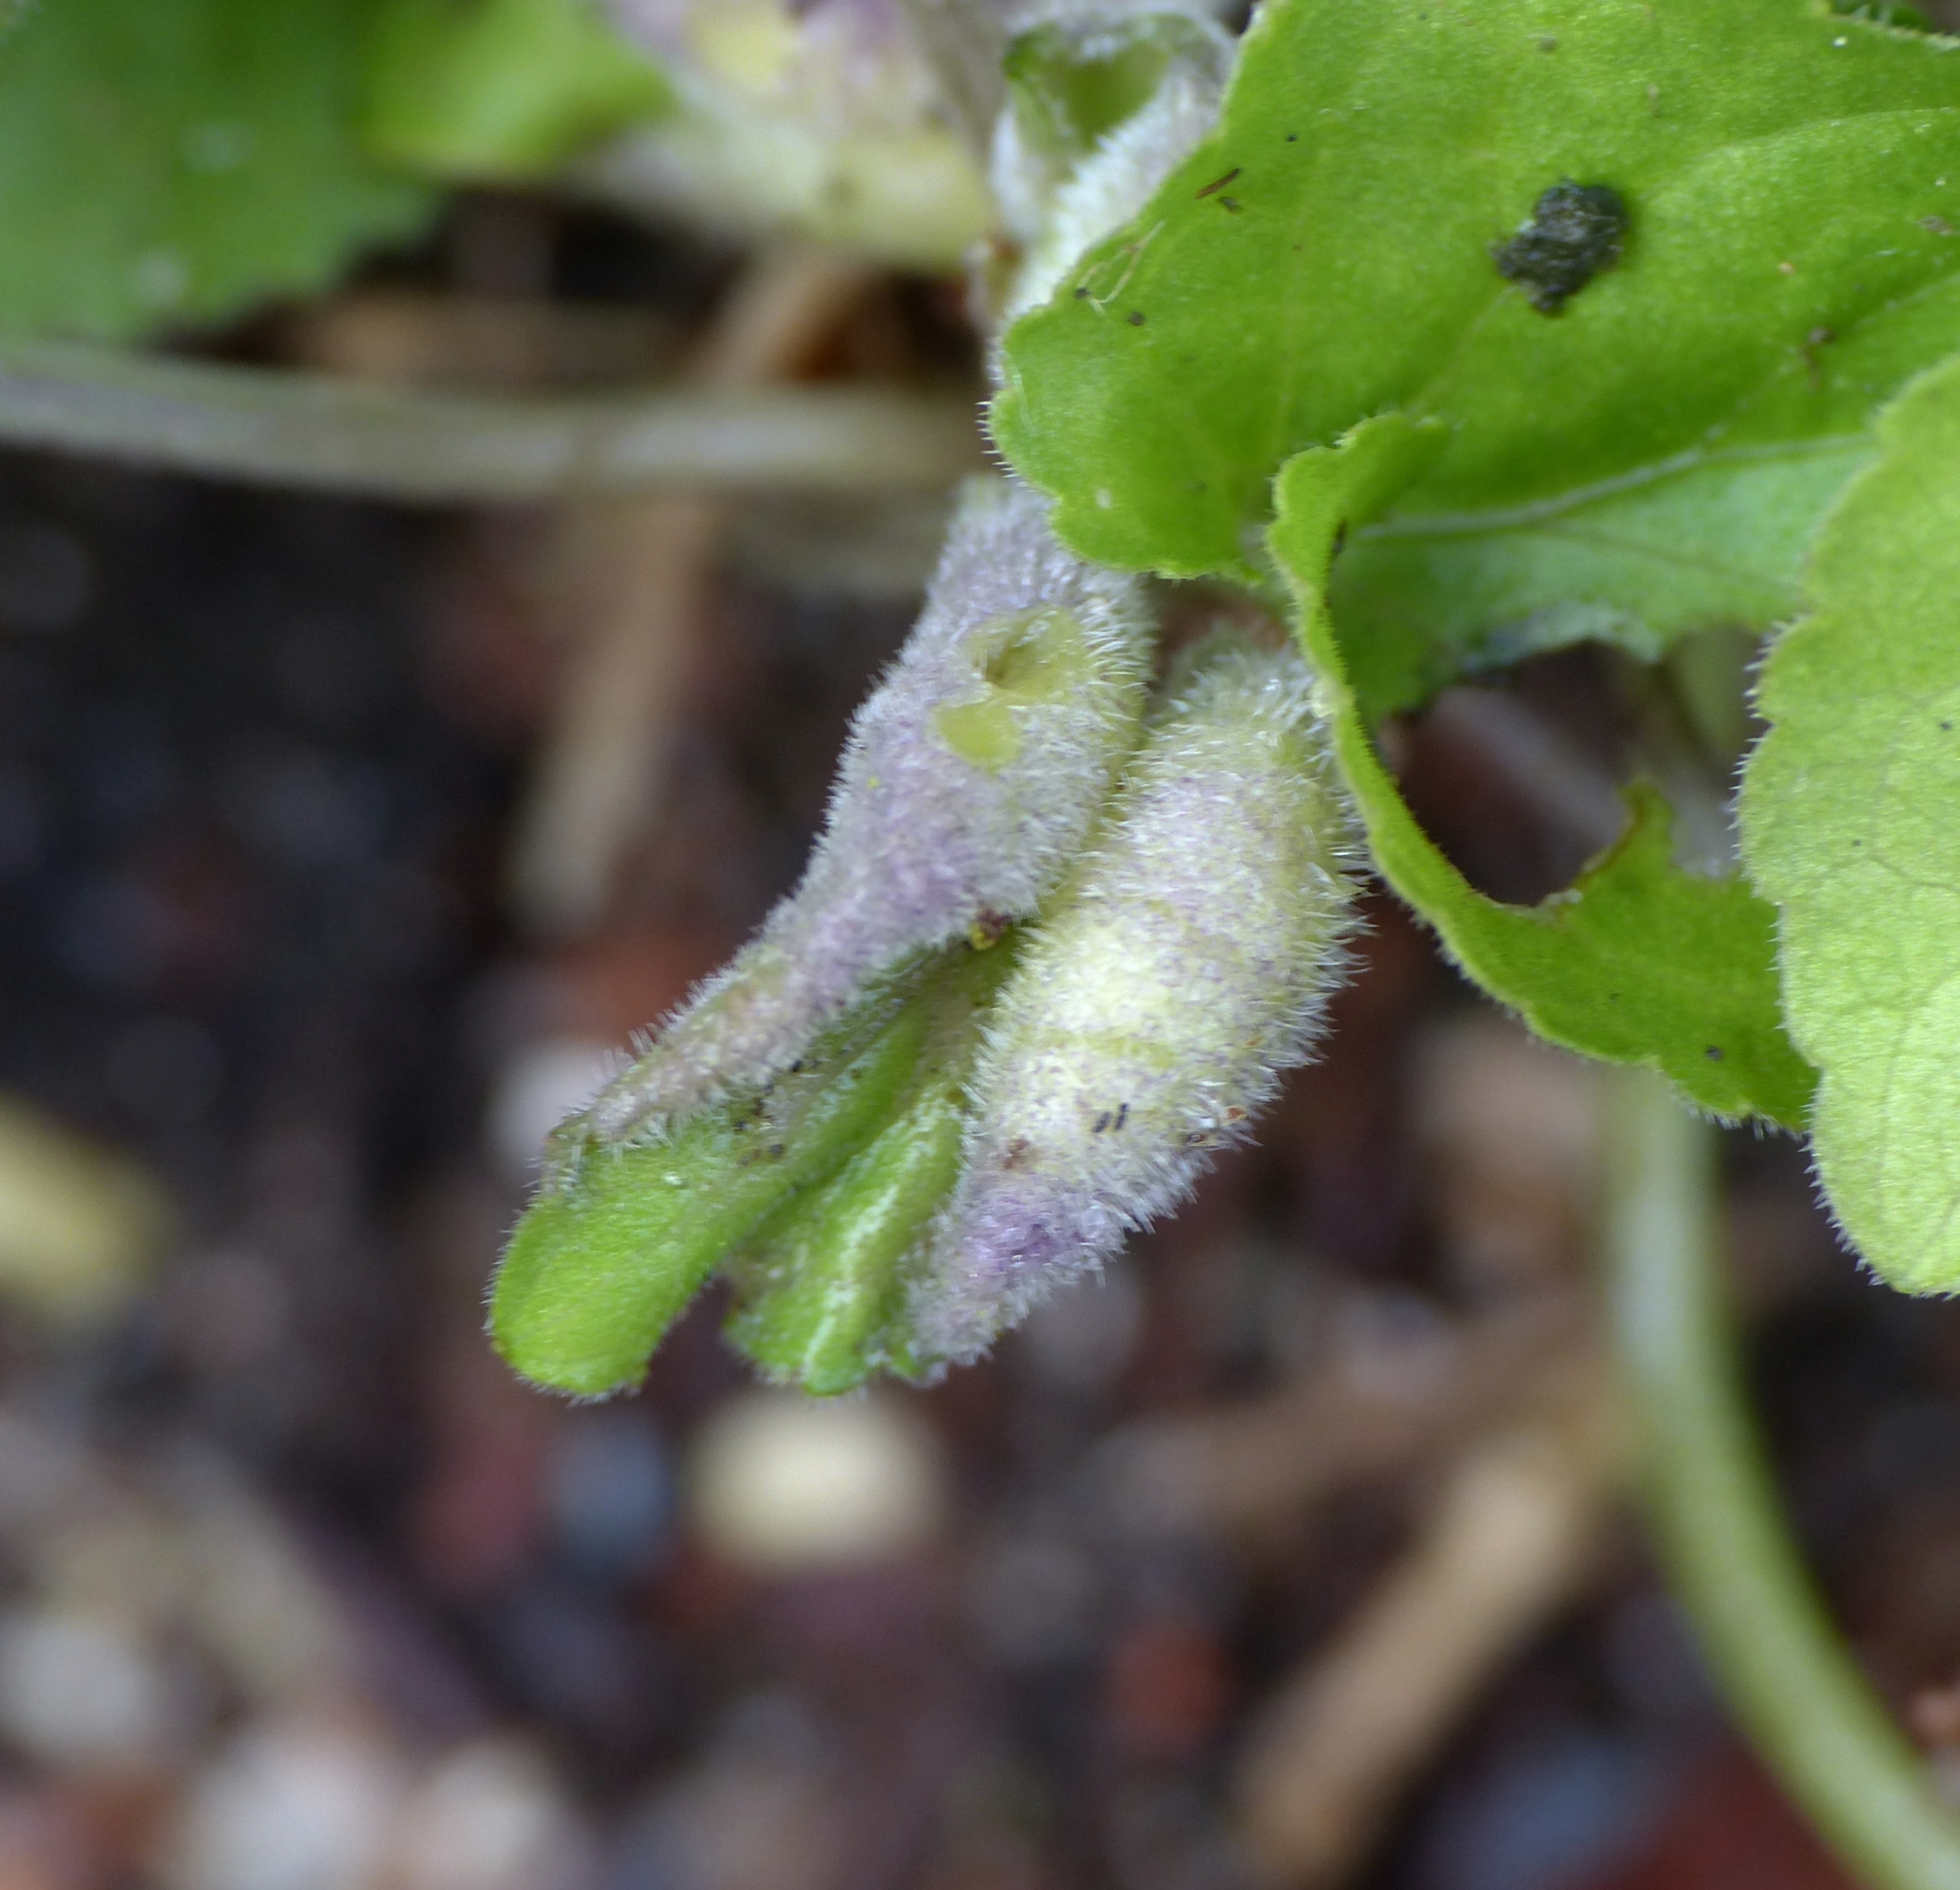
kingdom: Animalia
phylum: Arthropoda
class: Insecta
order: Diptera
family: Cecidomyiidae
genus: Dasineura
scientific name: Dasineura odoratae
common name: Martsviolgalmyg
